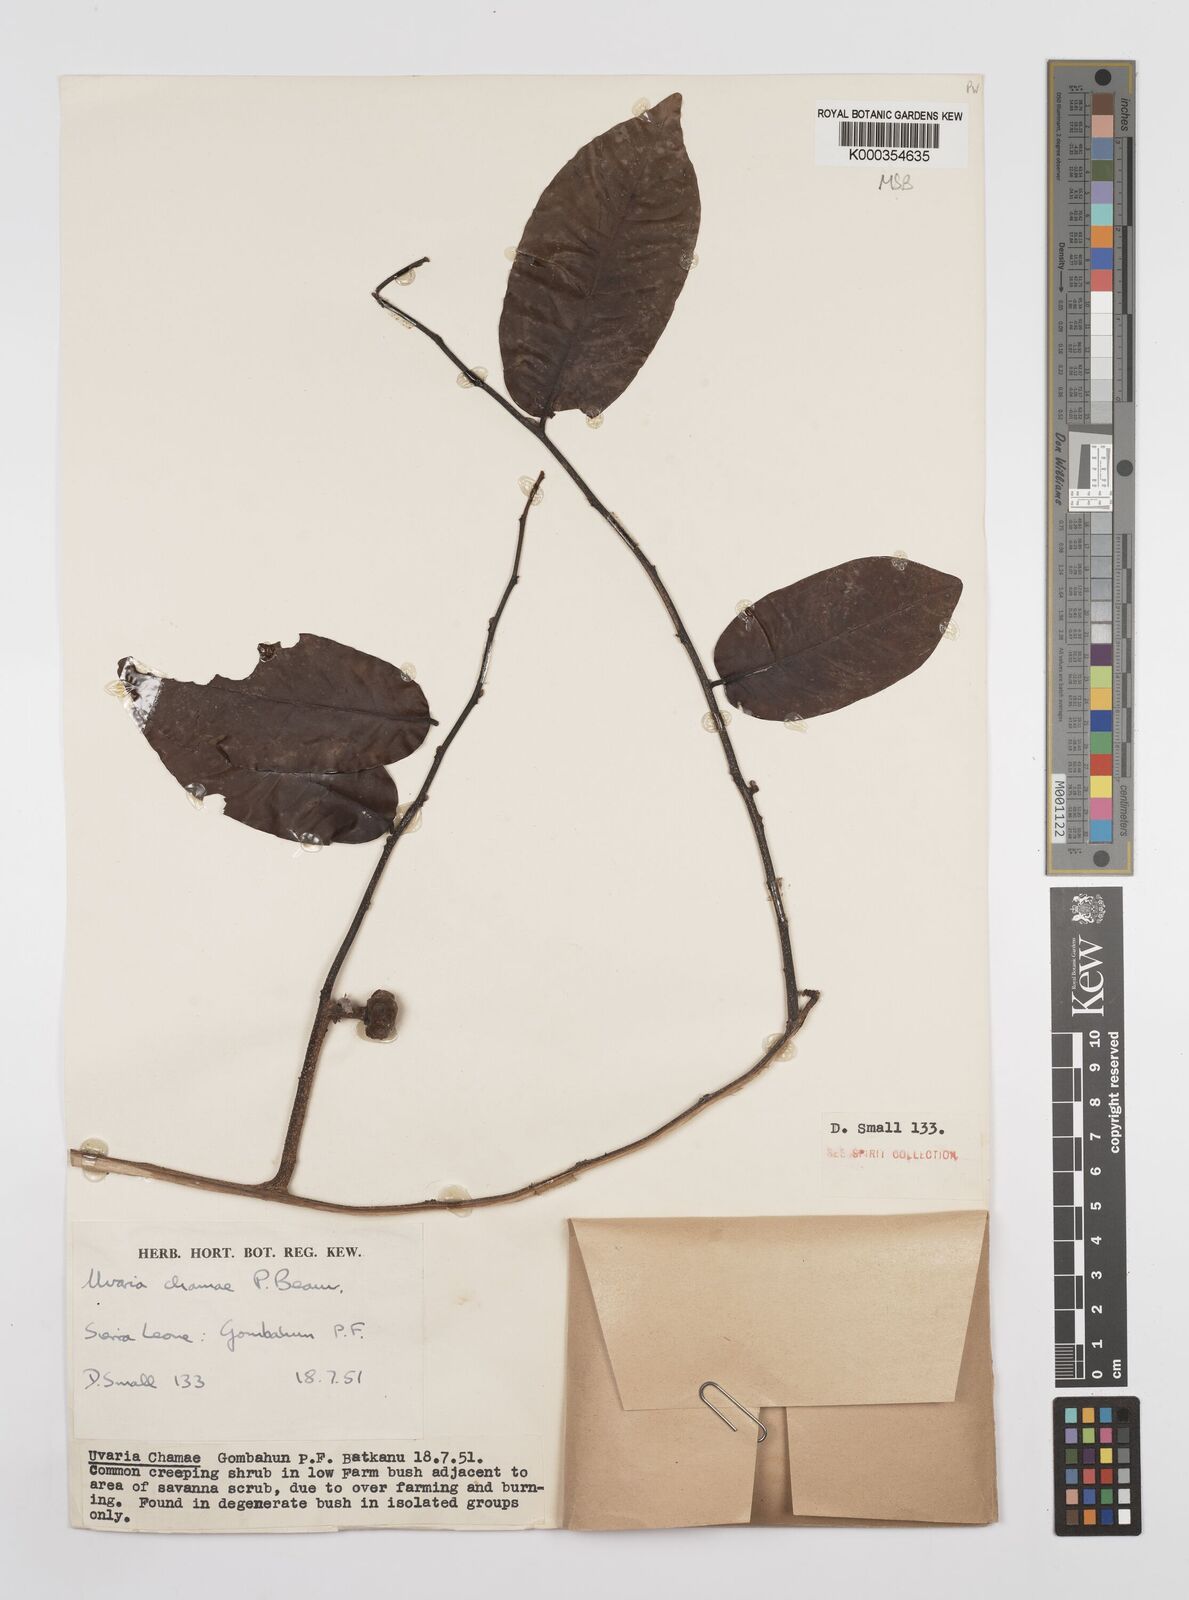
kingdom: Plantae
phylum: Tracheophyta
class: Magnoliopsida
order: Magnoliales
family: Annonaceae
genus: Uvaria
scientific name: Uvaria chamae
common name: Finger-root
